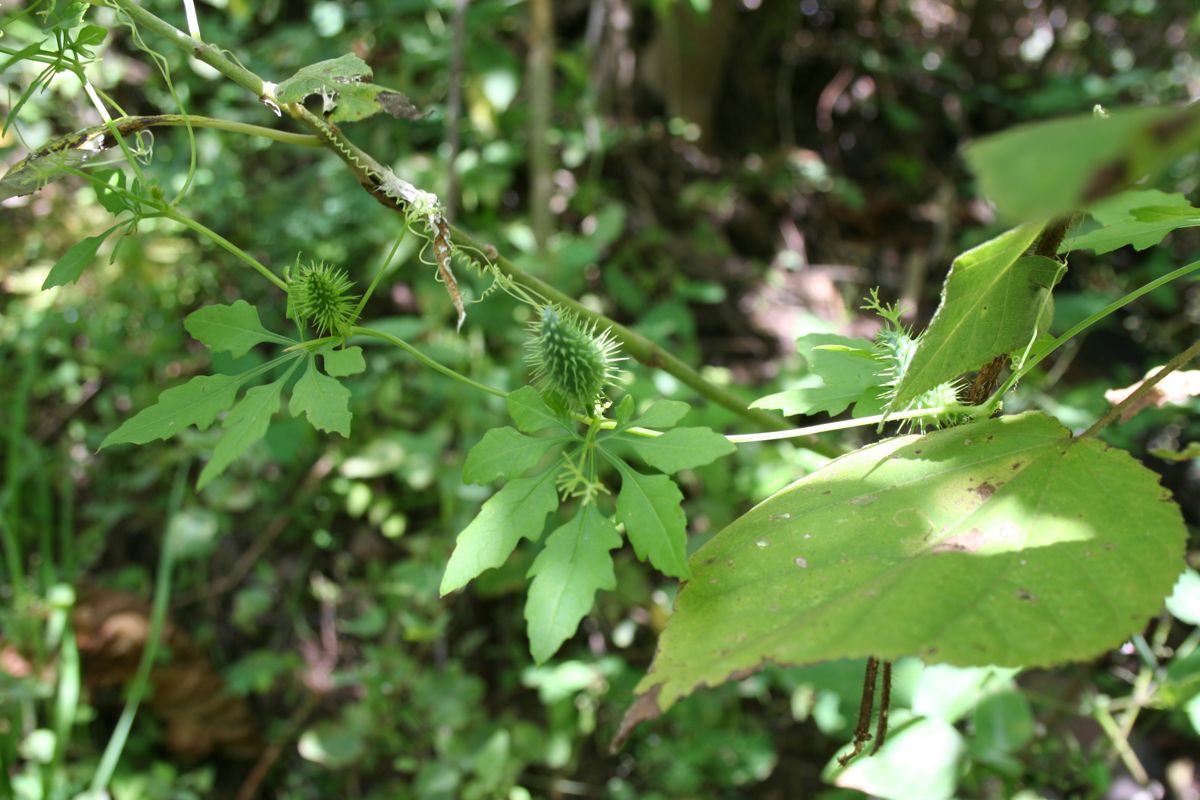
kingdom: Plantae
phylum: Tracheophyta
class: Magnoliopsida
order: Cucurbitales
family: Cucurbitaceae
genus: Cyclanthera
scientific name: Cyclanthera dissecta
